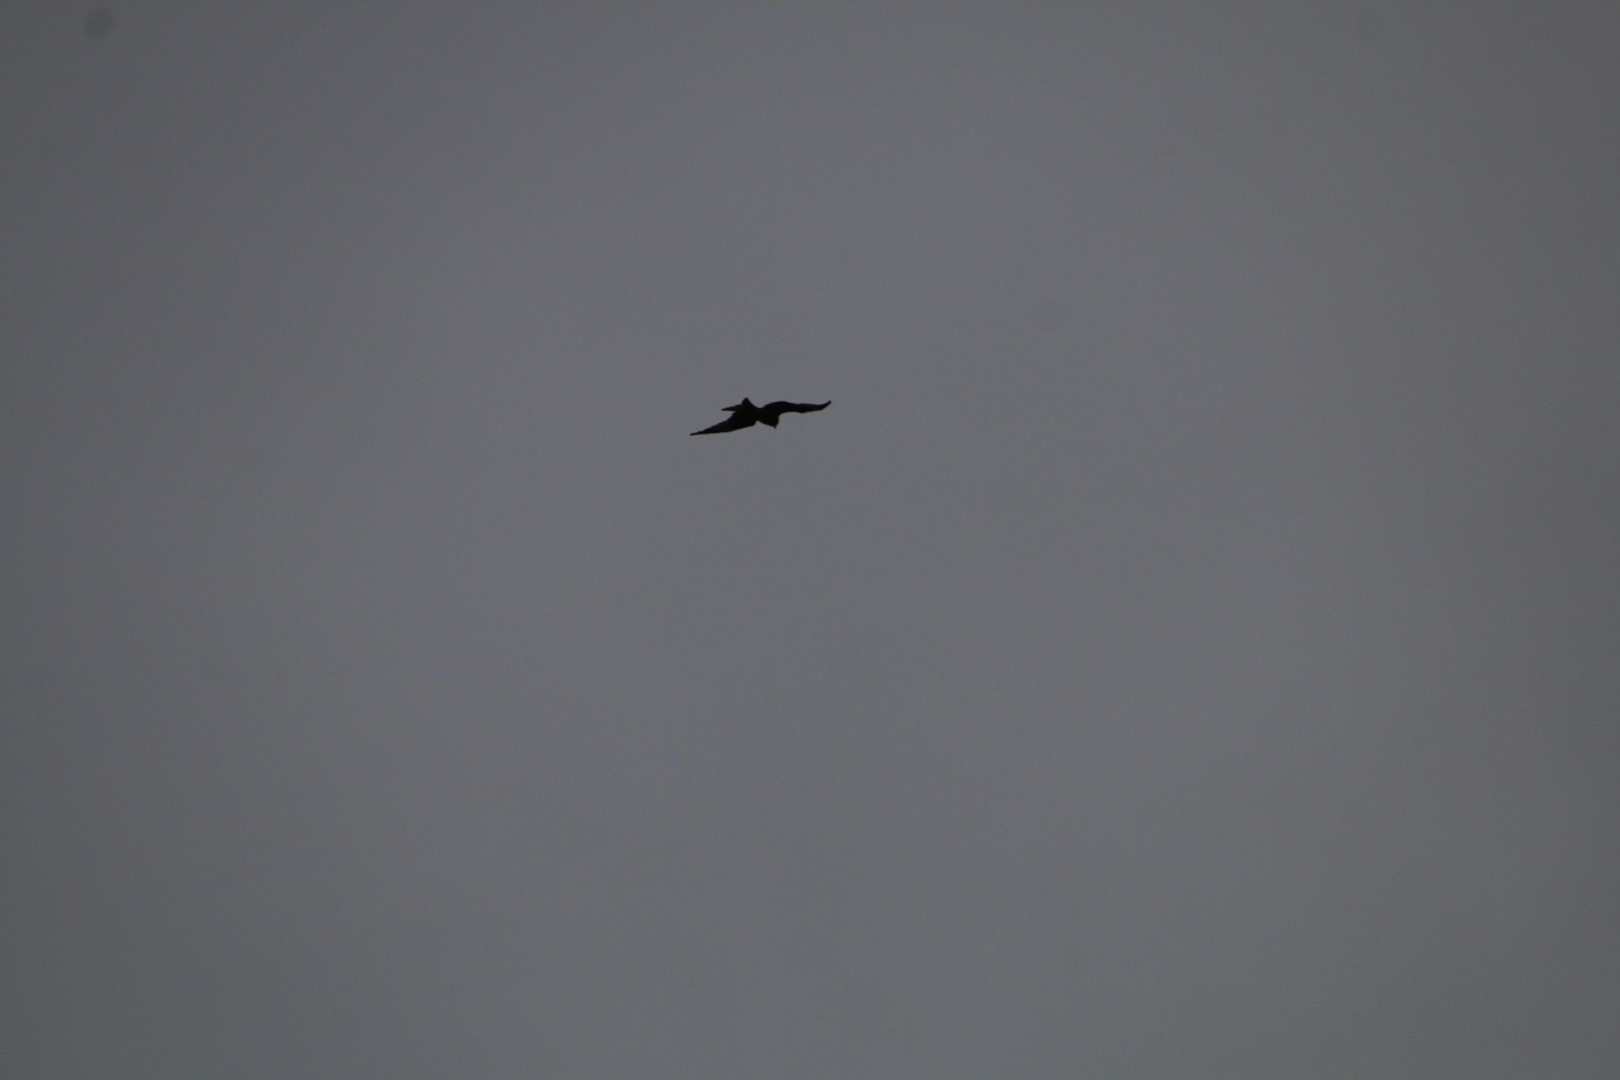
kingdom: Animalia
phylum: Chordata
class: Aves
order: Accipitriformes
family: Accipitridae
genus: Milvus
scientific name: Milvus milvus
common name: Rød glente
